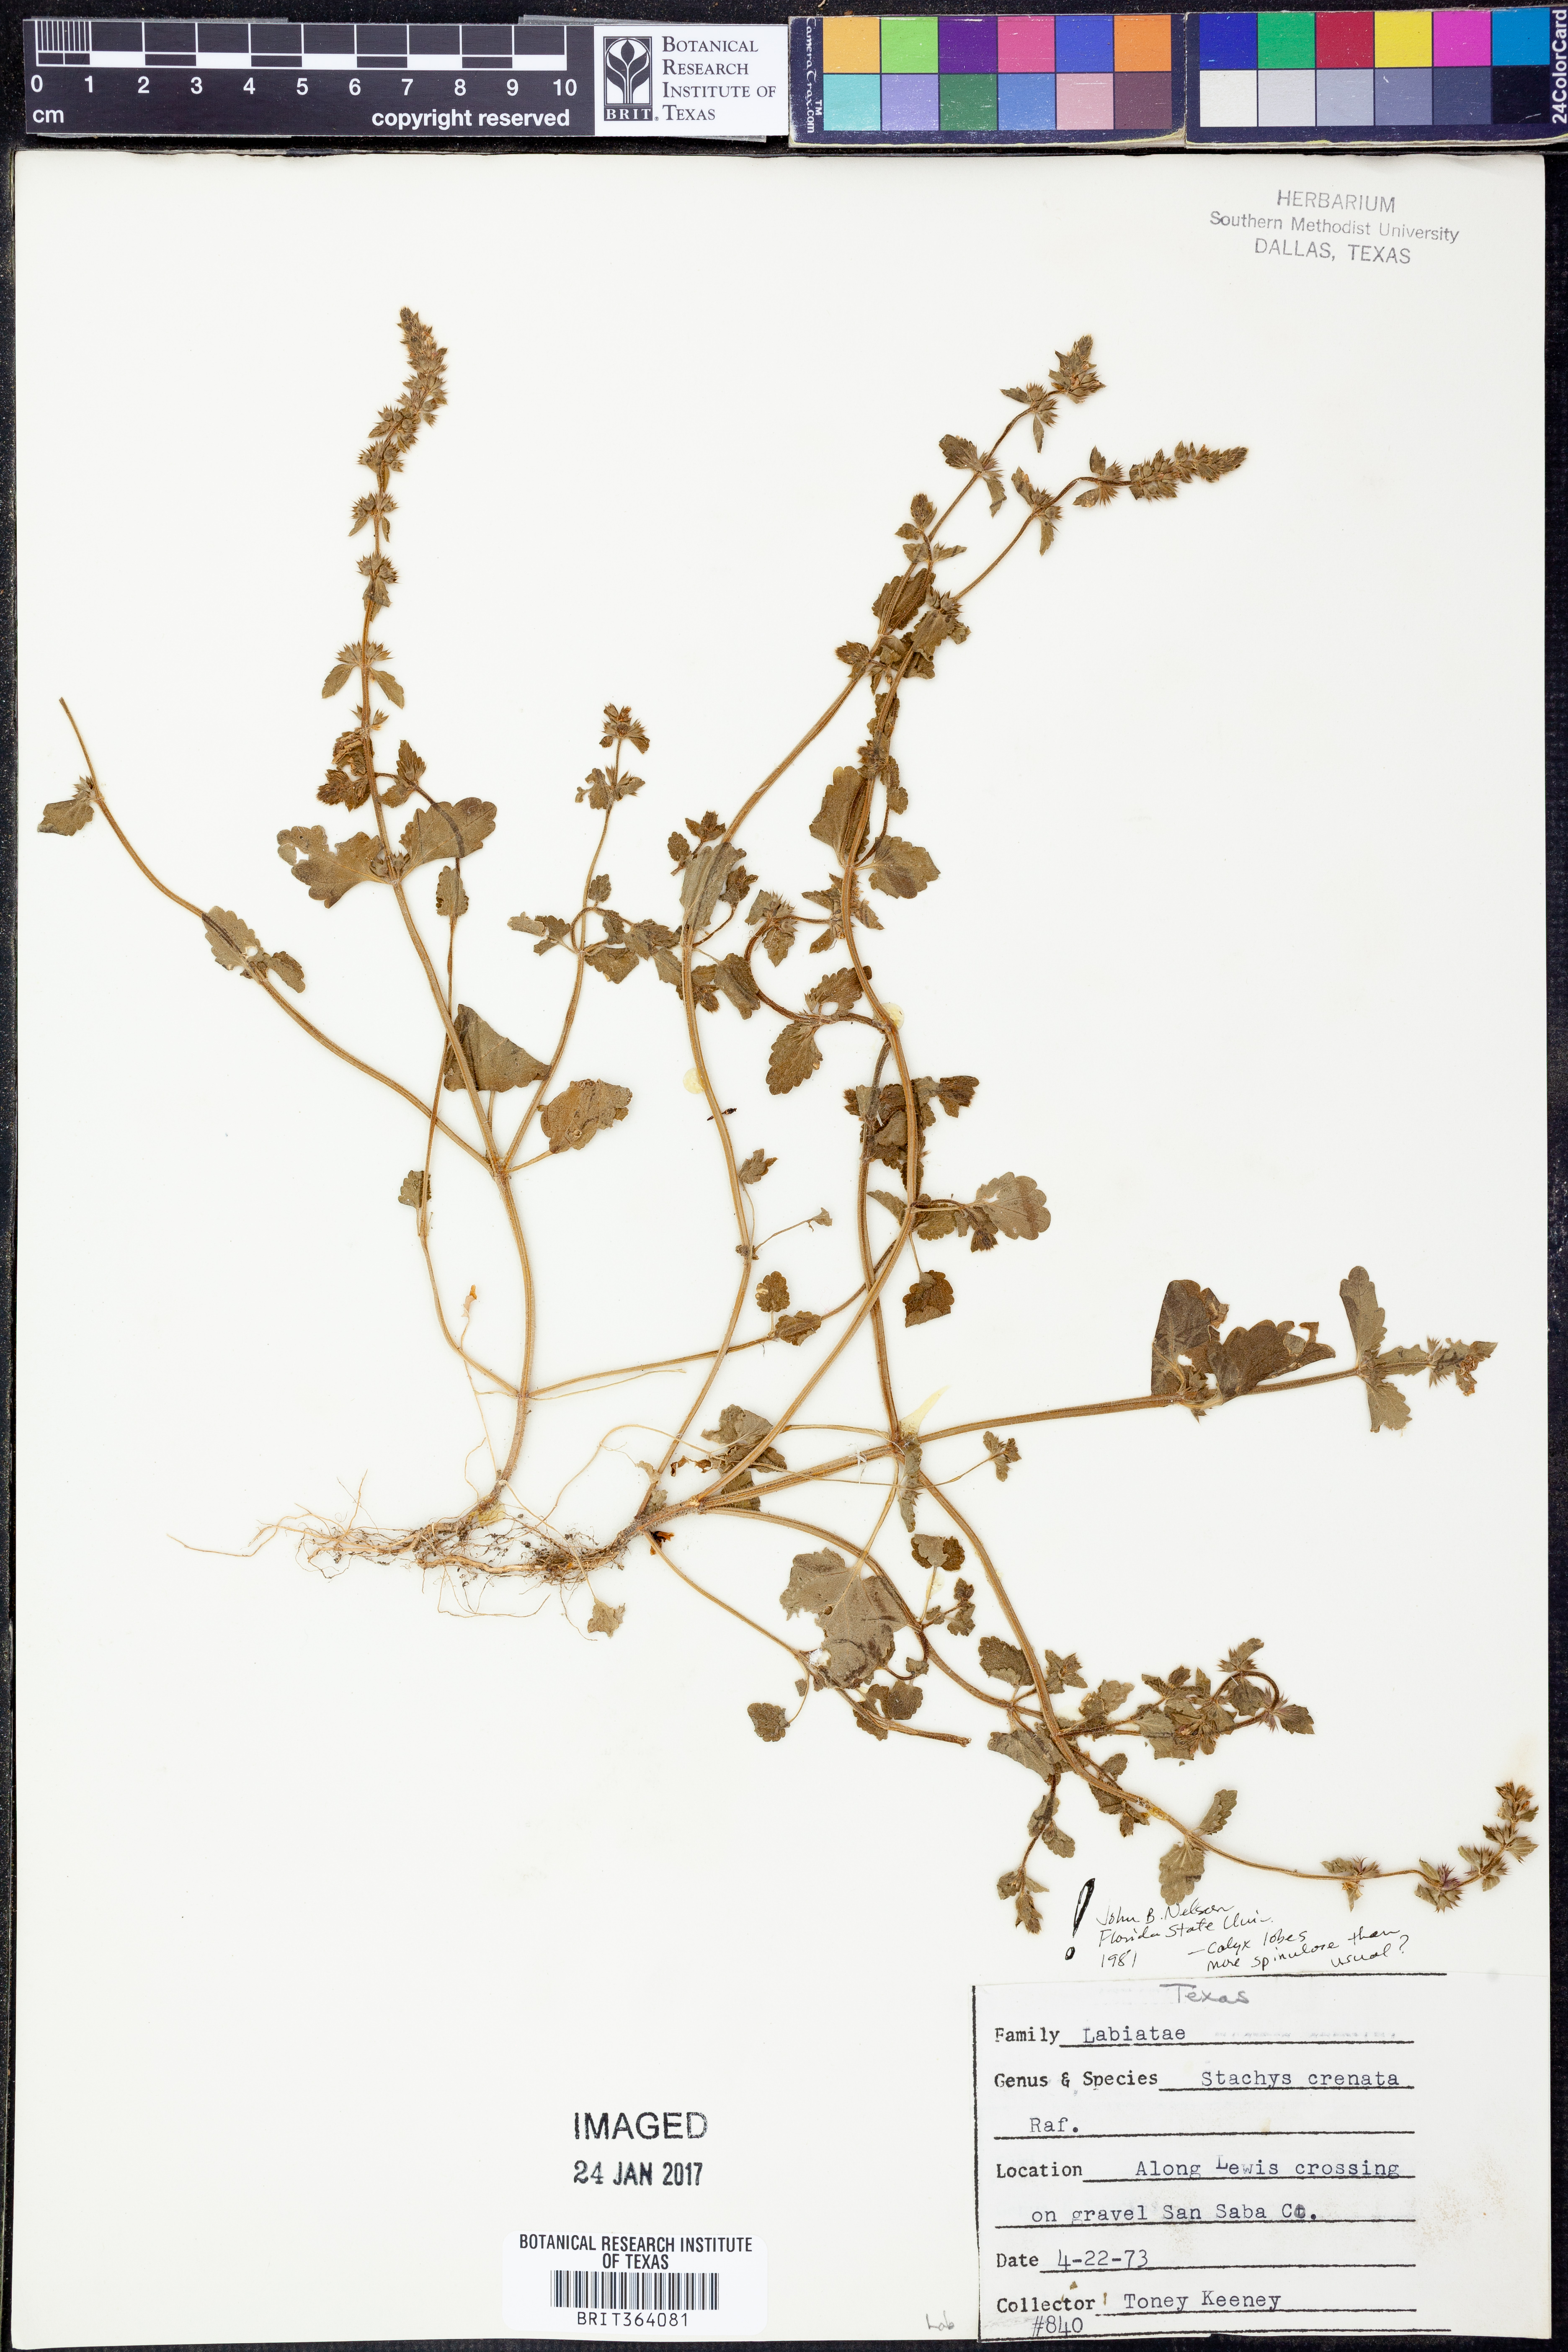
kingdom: Plantae
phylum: Tracheophyta
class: Magnoliopsida
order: Lamiales
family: Lamiaceae
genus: Stachys
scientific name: Stachys agraria
